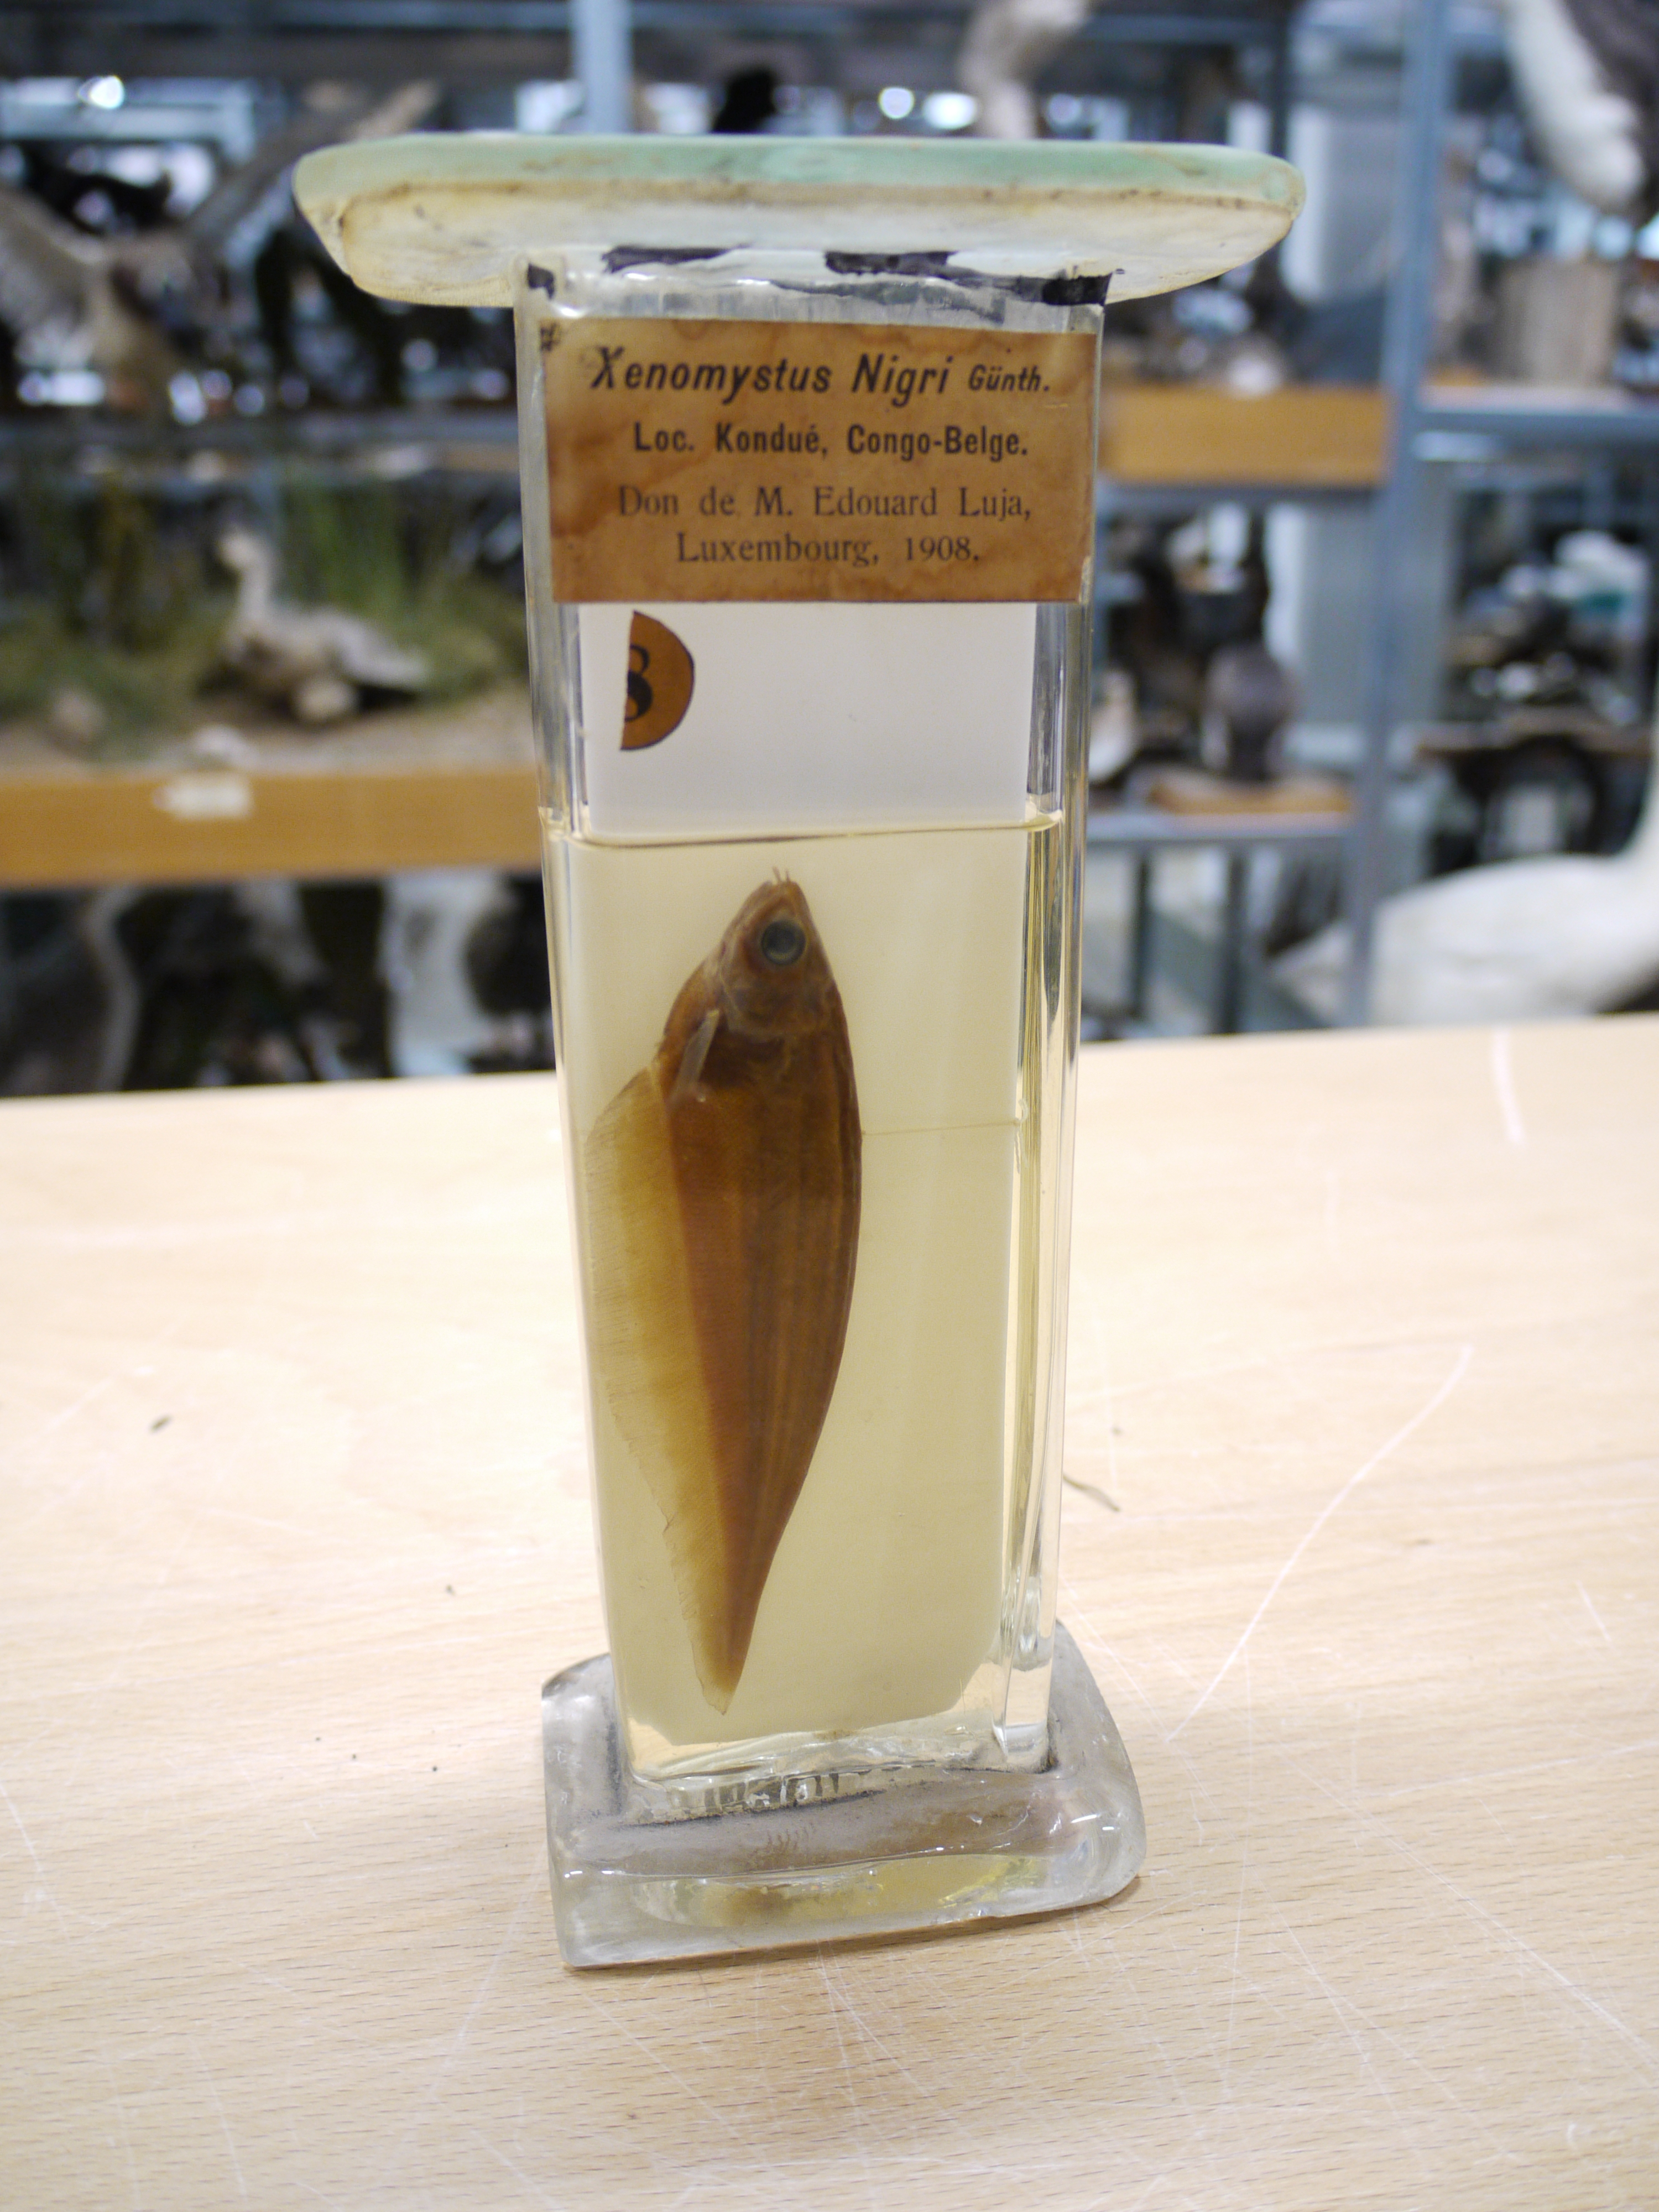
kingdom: Animalia
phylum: Chordata
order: Osteoglossiformes
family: Notopteridae
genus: Xenomystus
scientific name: Xenomystus nigri
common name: African knifefish
